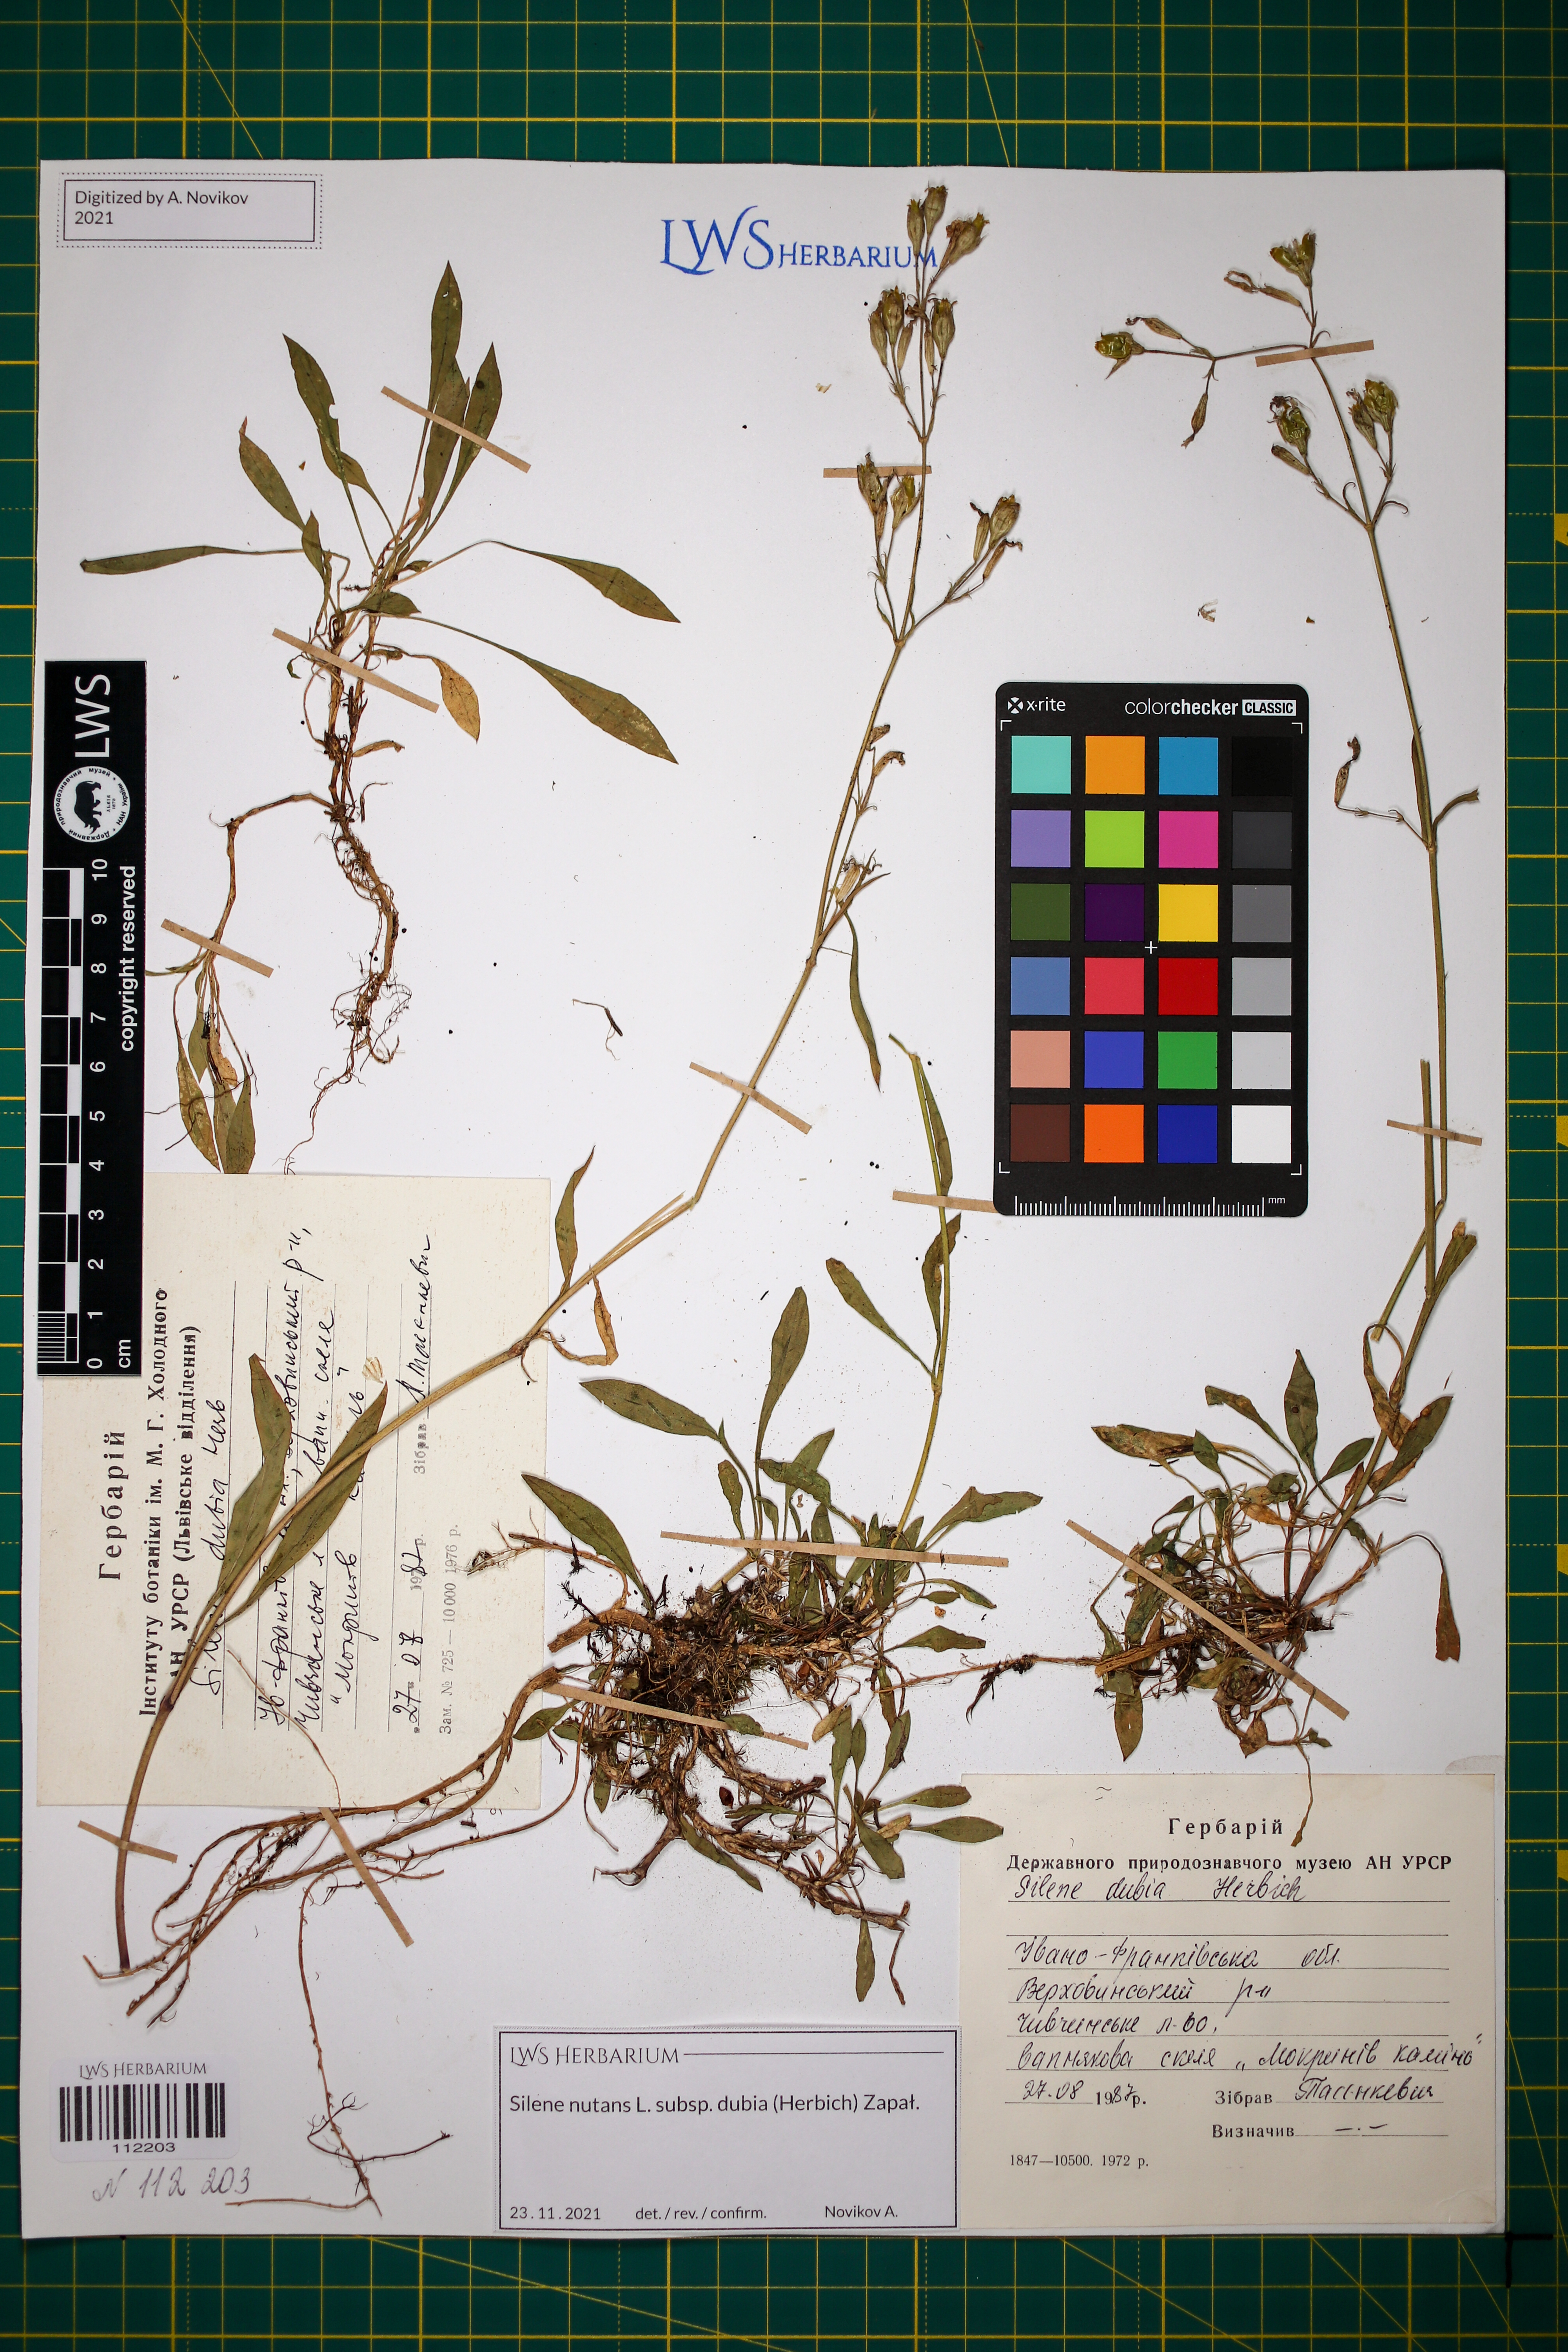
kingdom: Plantae
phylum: Tracheophyta
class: Magnoliopsida
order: Caryophyllales
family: Caryophyllaceae
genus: Silene
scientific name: Silene nutans
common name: Nottingham catchfly
